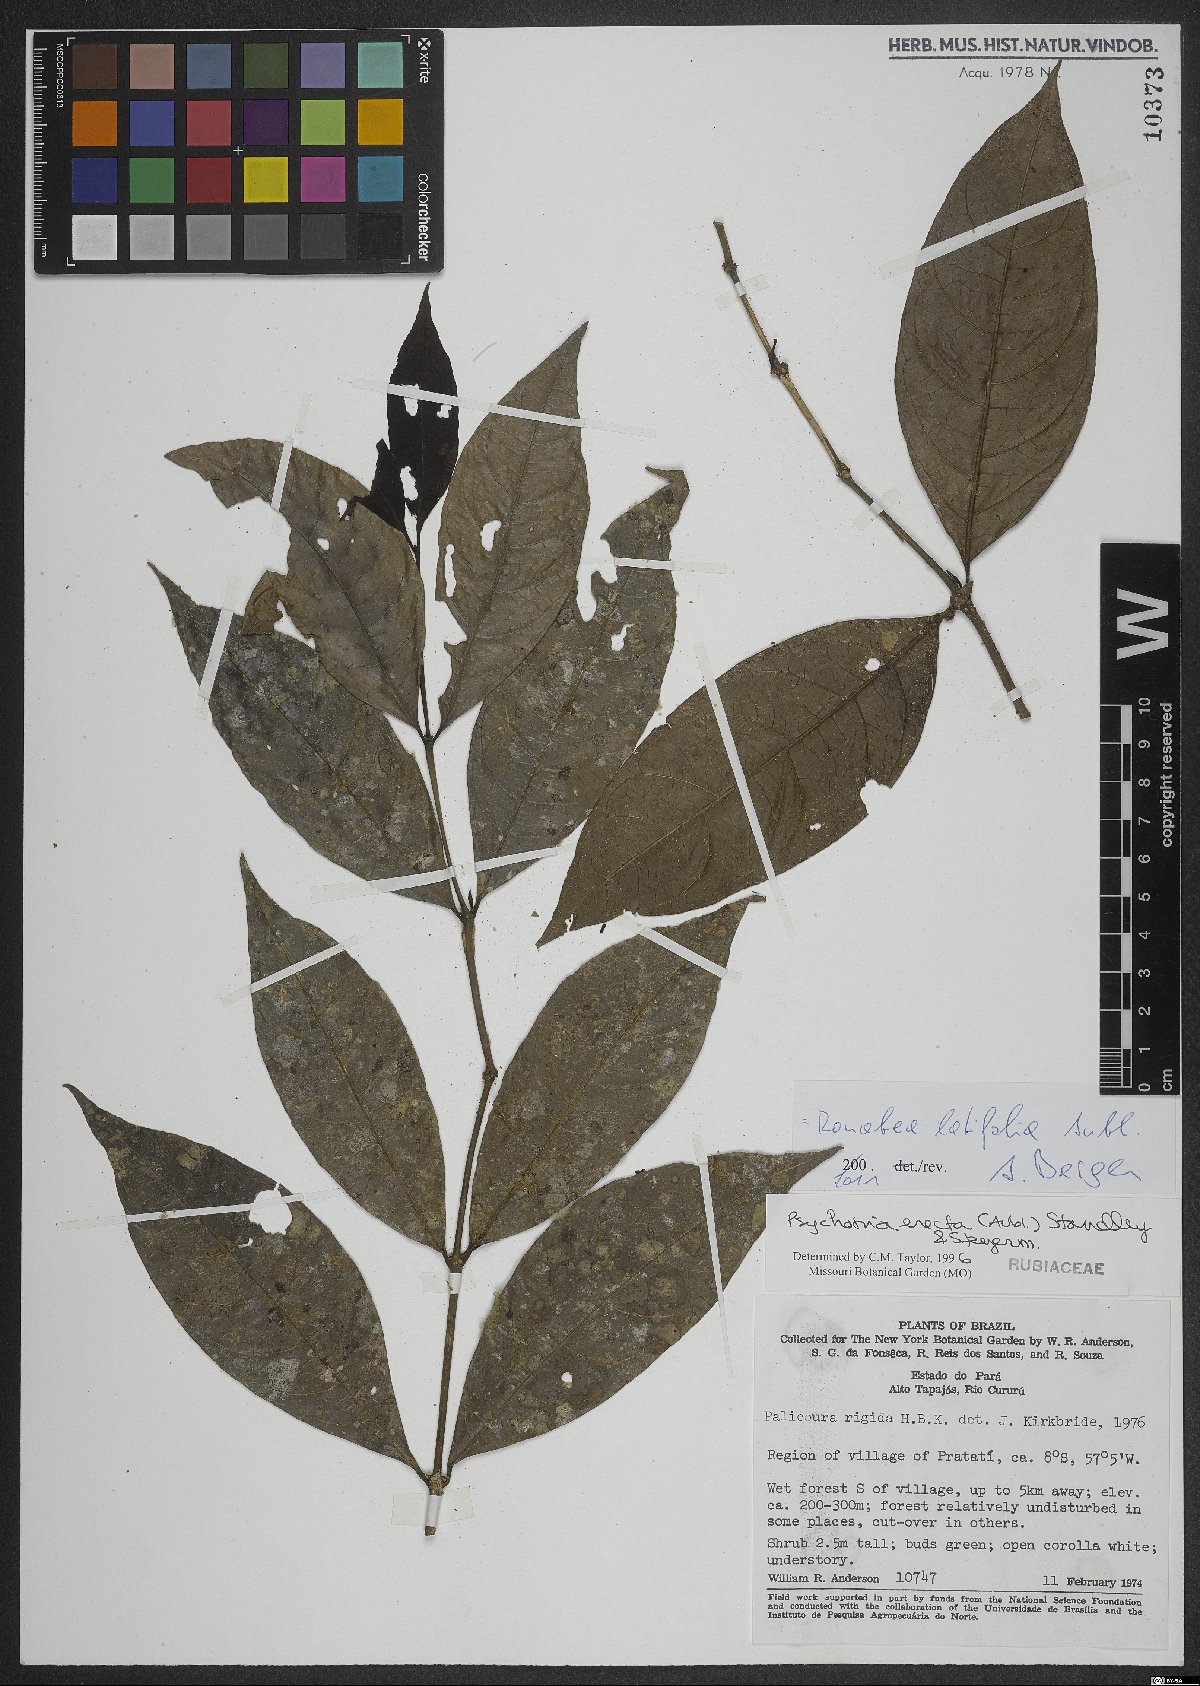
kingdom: Plantae
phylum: Tracheophyta
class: Magnoliopsida
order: Gentianales
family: Rubiaceae
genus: Ronabea
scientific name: Ronabea latifolia
